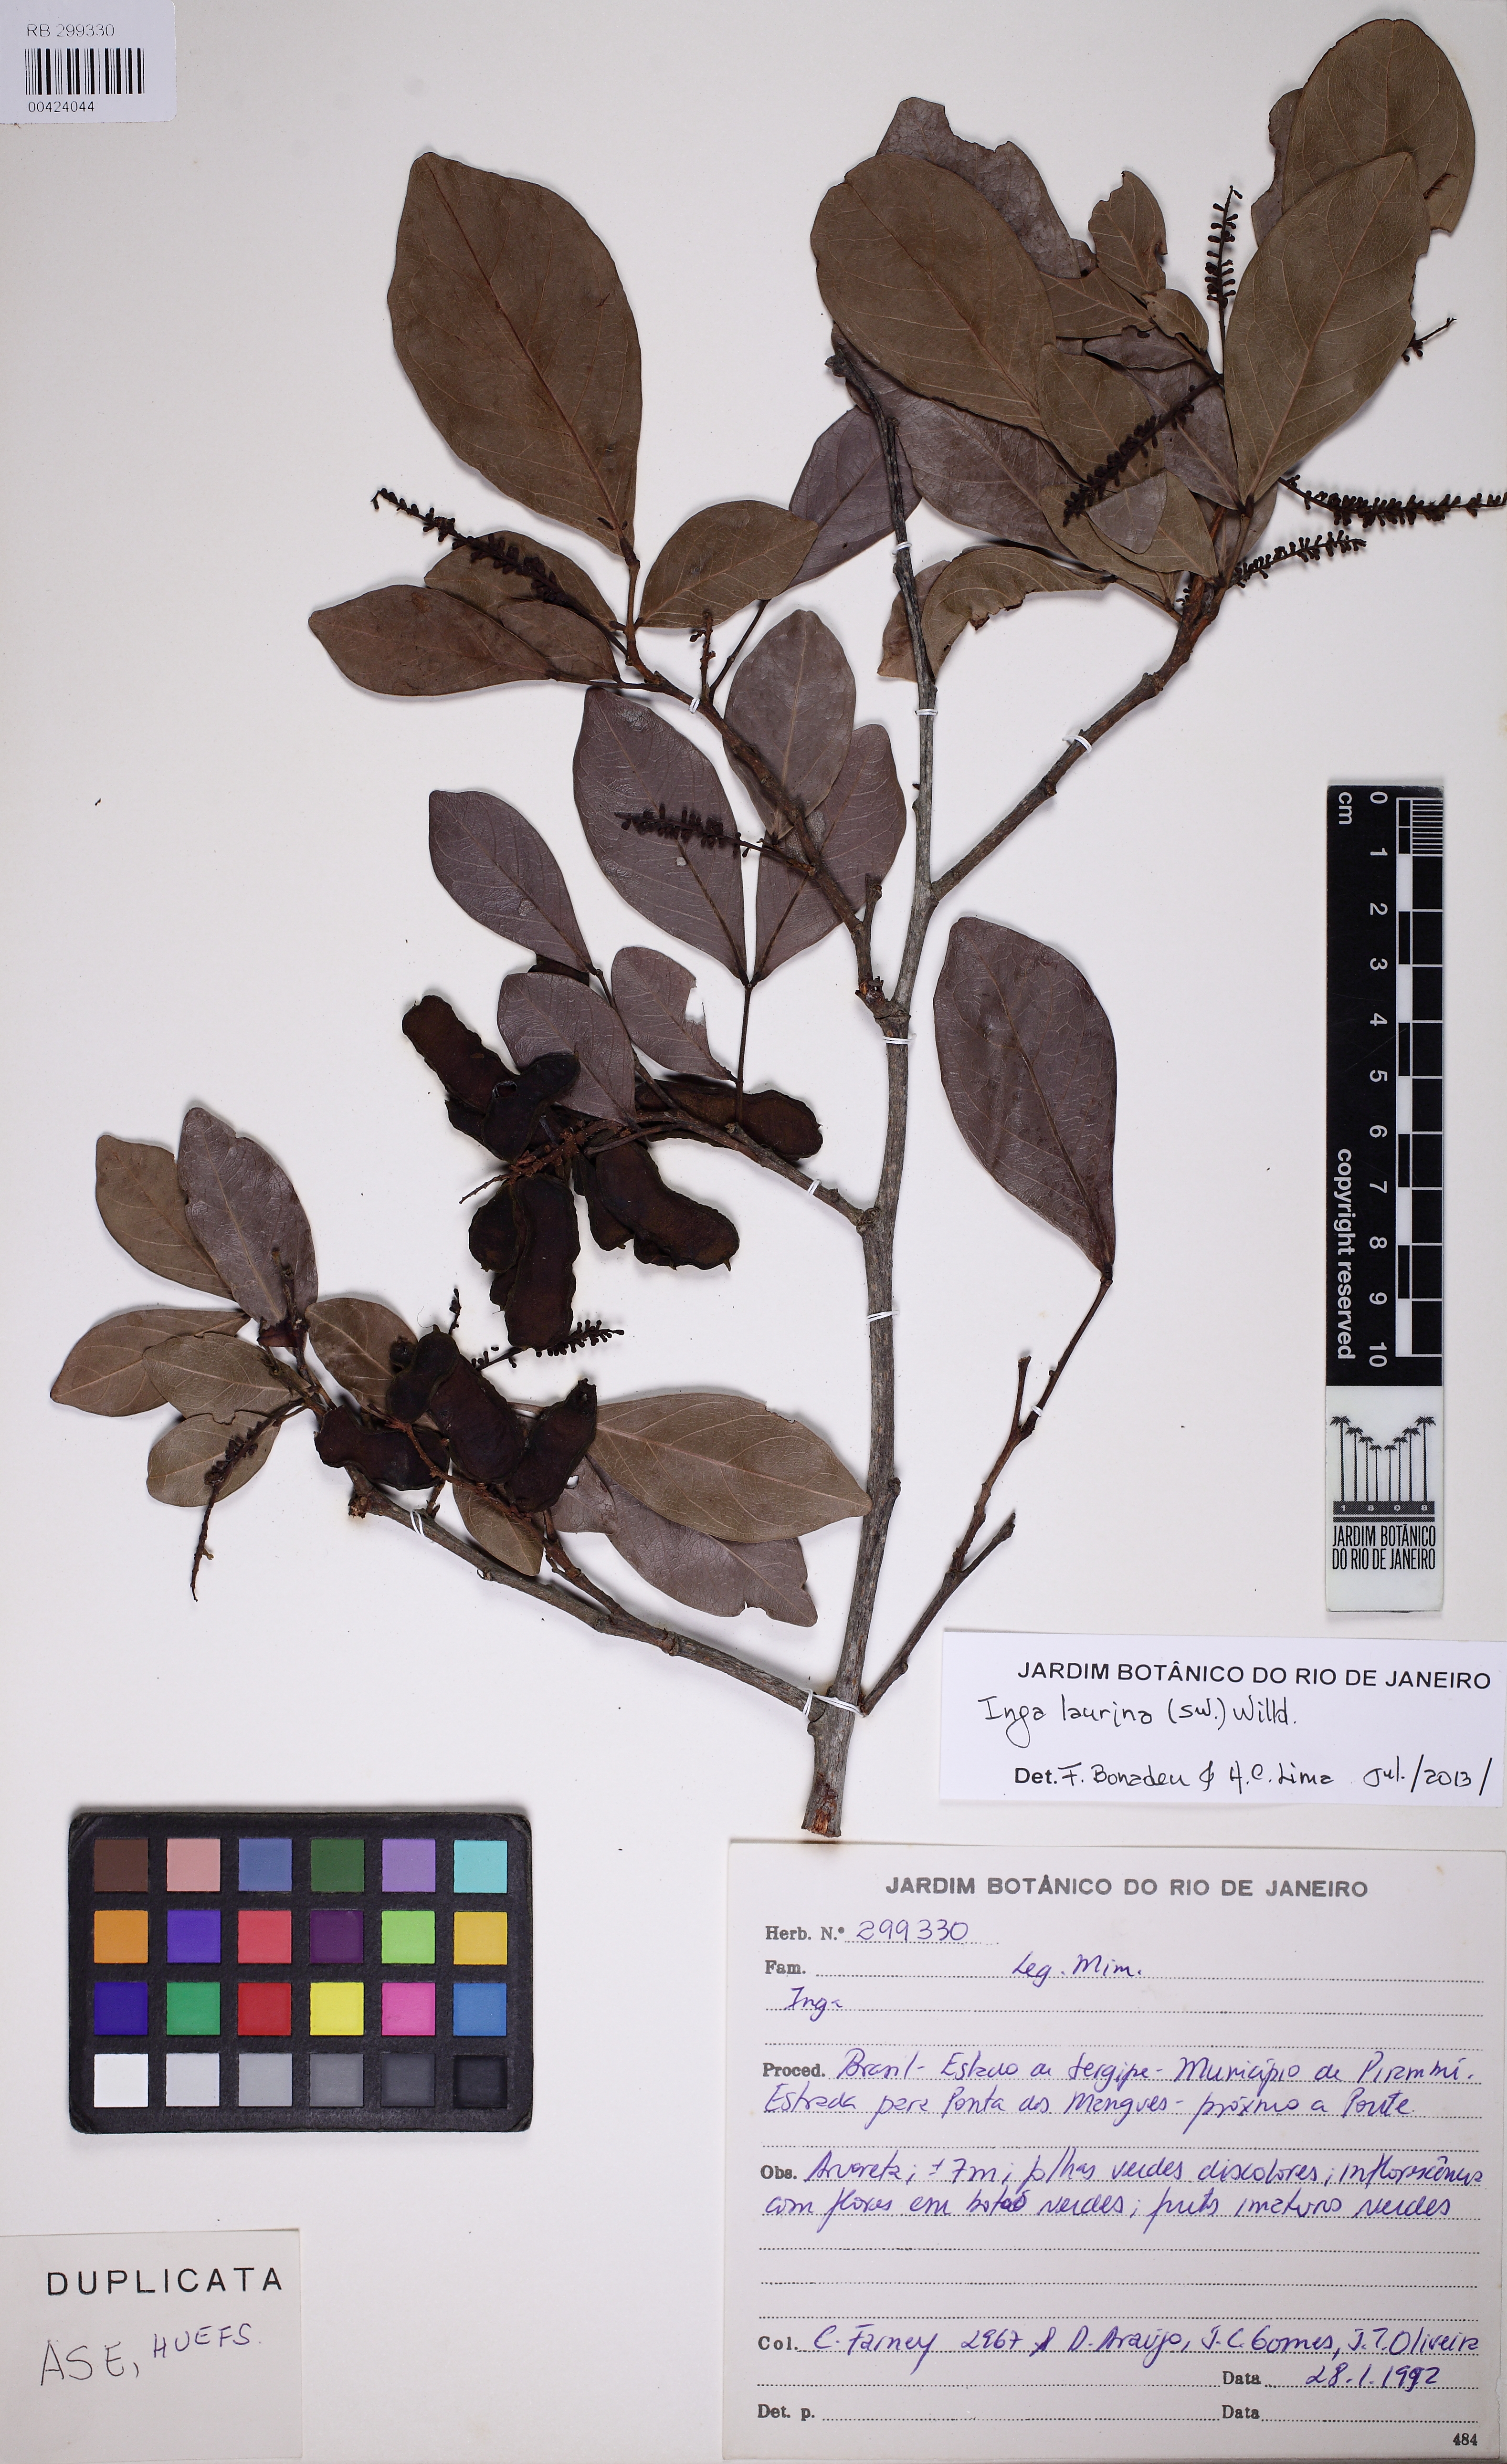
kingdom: Plantae
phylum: Tracheophyta
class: Magnoliopsida
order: Fabales
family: Fabaceae
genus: Inga
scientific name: Inga laurina
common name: Red wood
